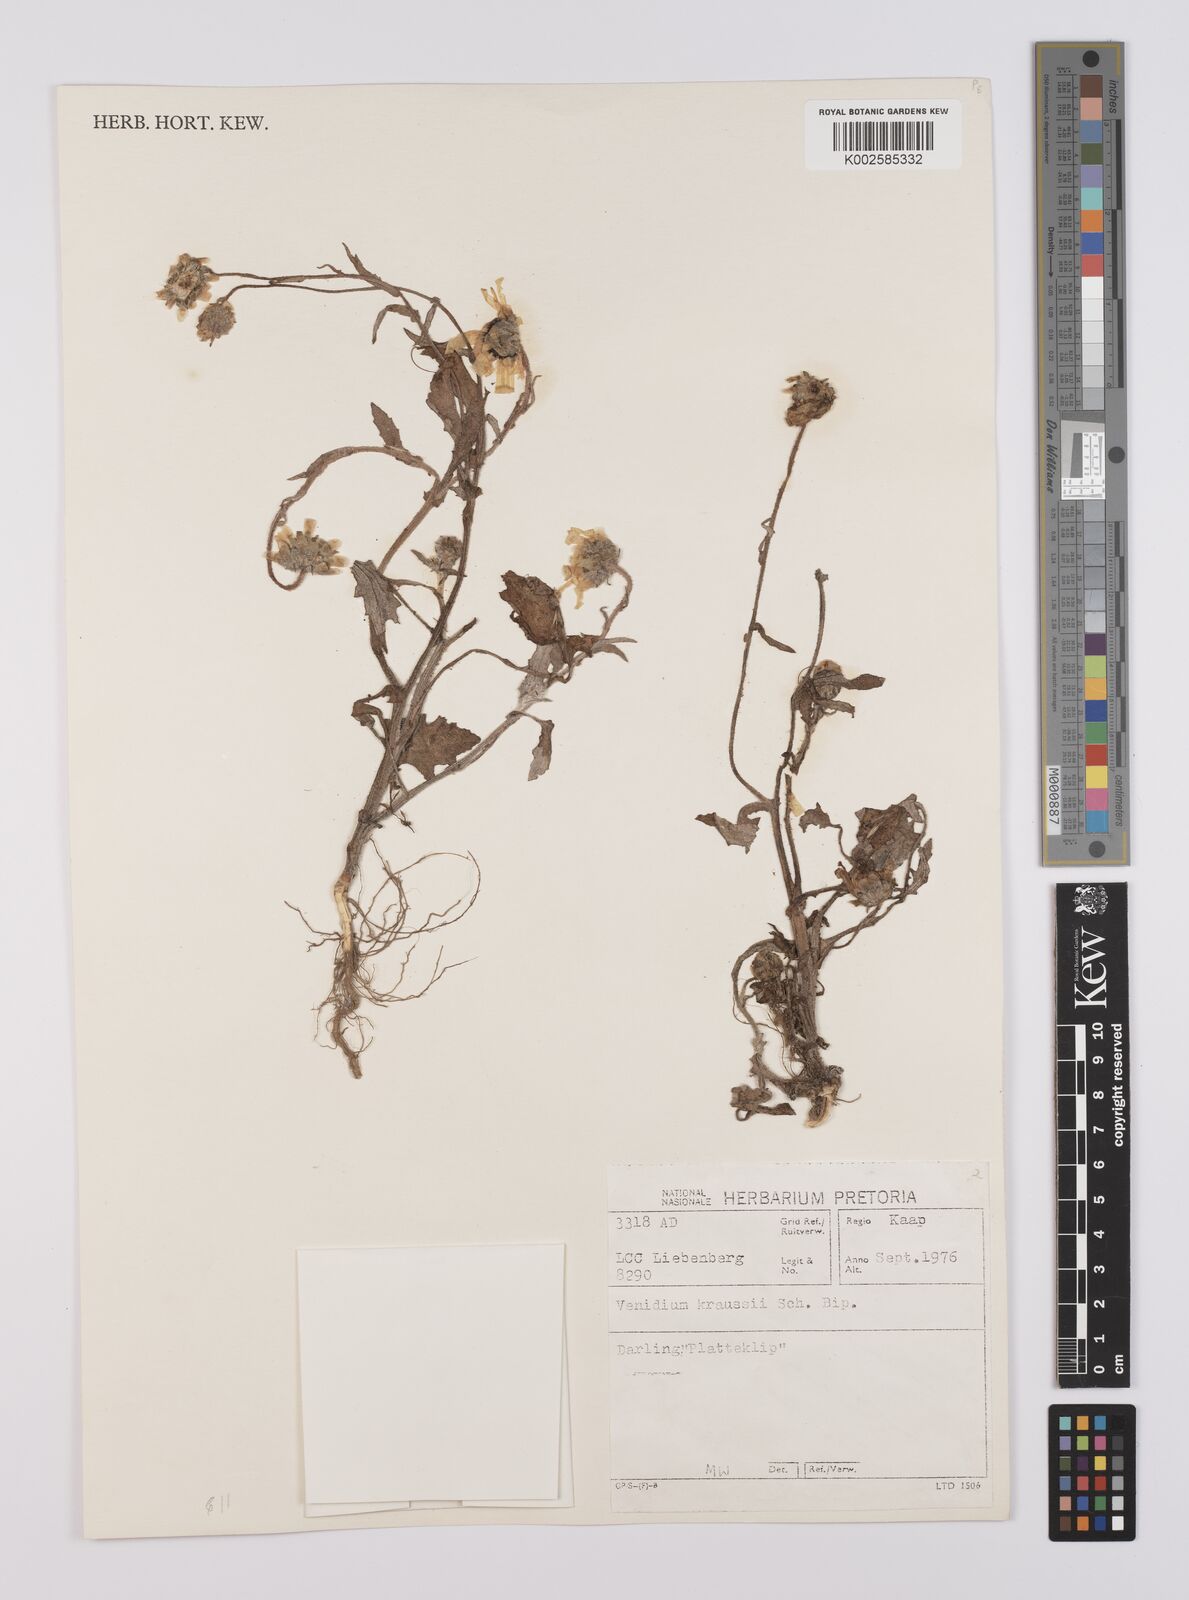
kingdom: Plantae
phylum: Tracheophyta
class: Magnoliopsida
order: Asterales
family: Asteraceae
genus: Arctotis
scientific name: Arctotis angustifolia
